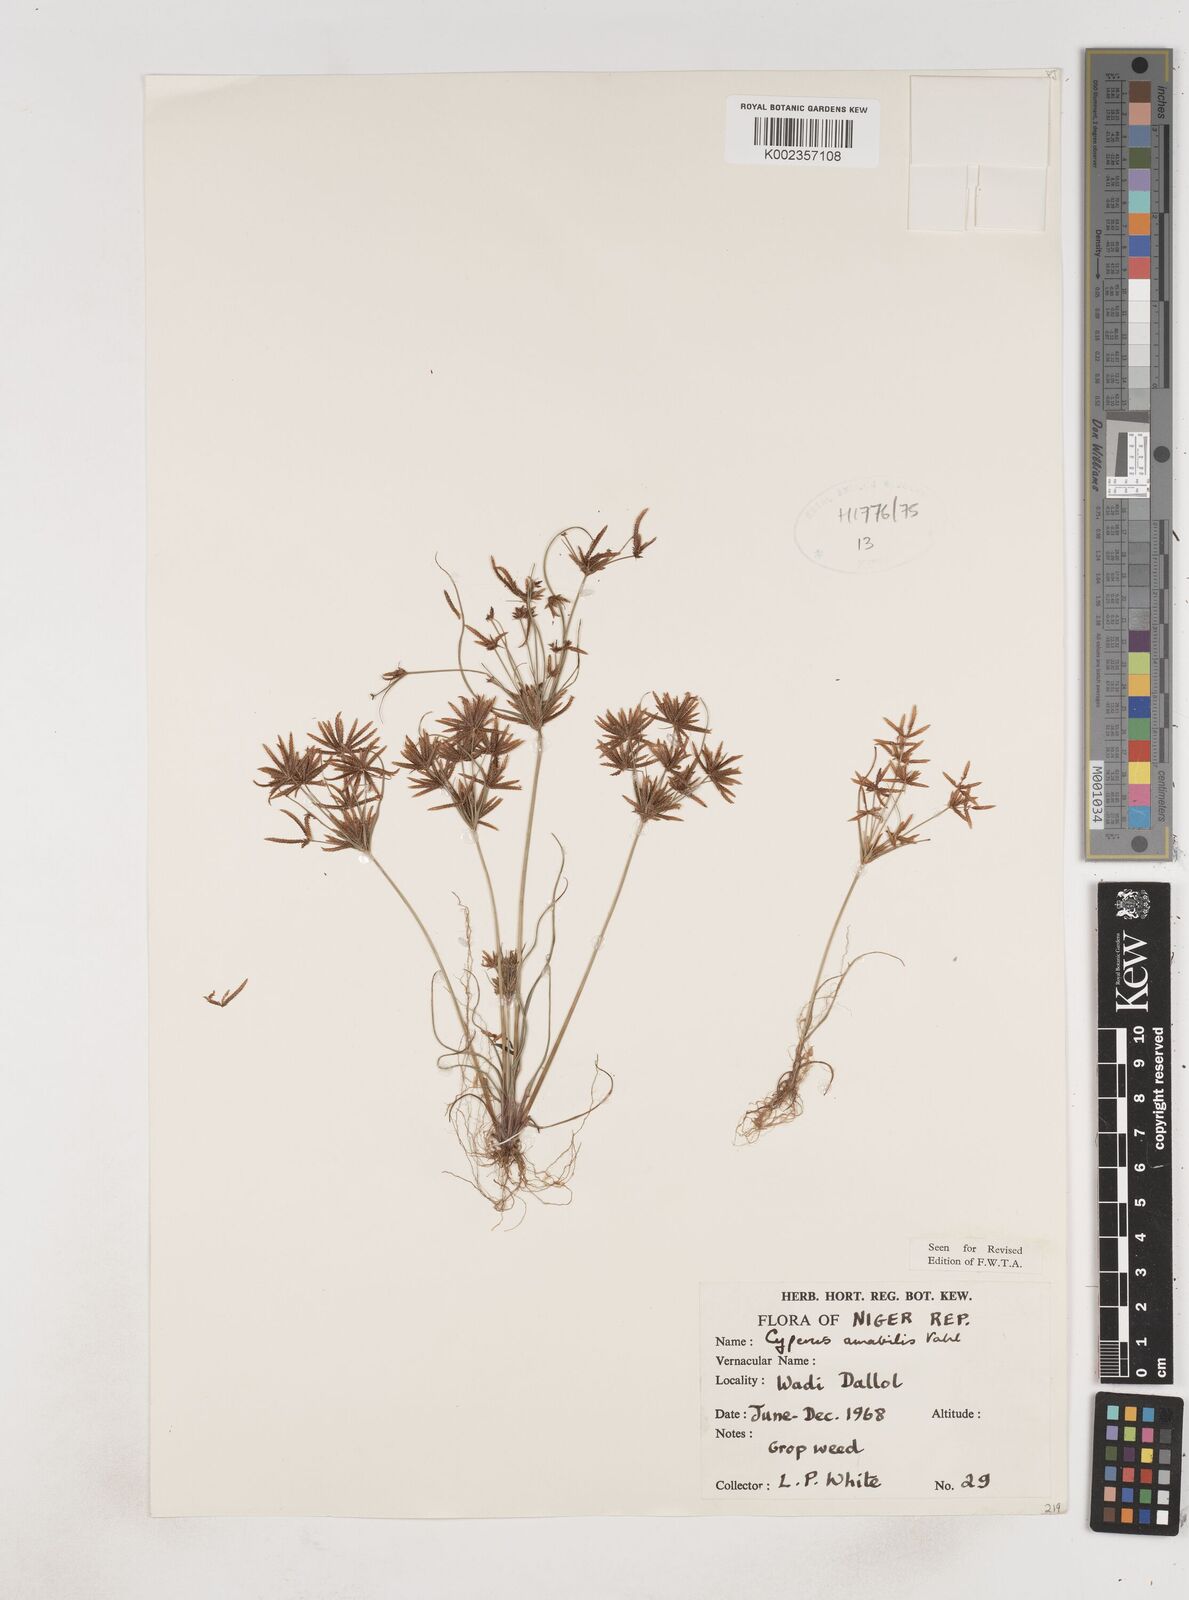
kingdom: Plantae
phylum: Tracheophyta
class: Liliopsida
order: Poales
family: Cyperaceae
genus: Cyperus
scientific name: Cyperus amabilis
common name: Foothill flat sedge
